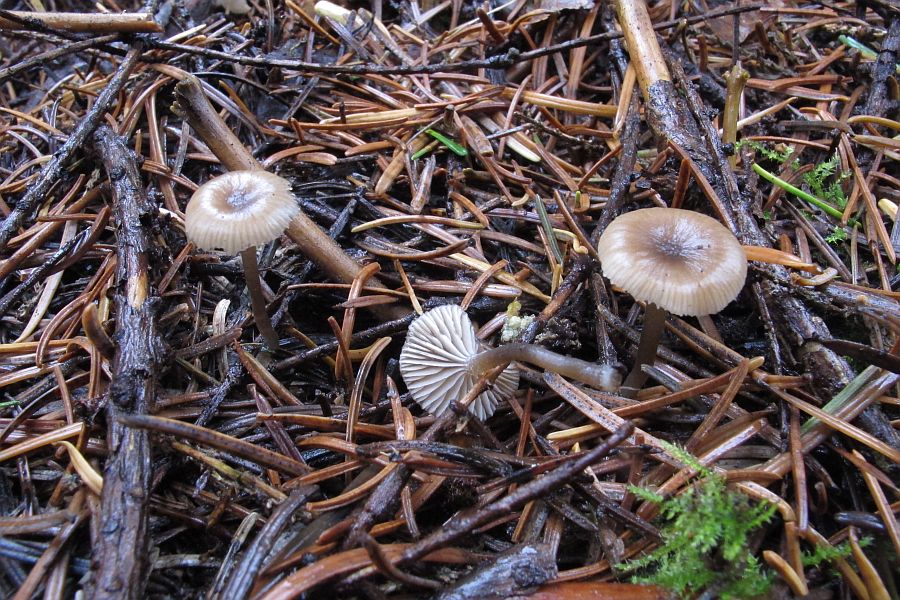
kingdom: Fungi
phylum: Basidiomycota
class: Agaricomycetes
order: Agaricales
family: Tricholomataceae
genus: Gamundia
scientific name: Gamundia striatula
